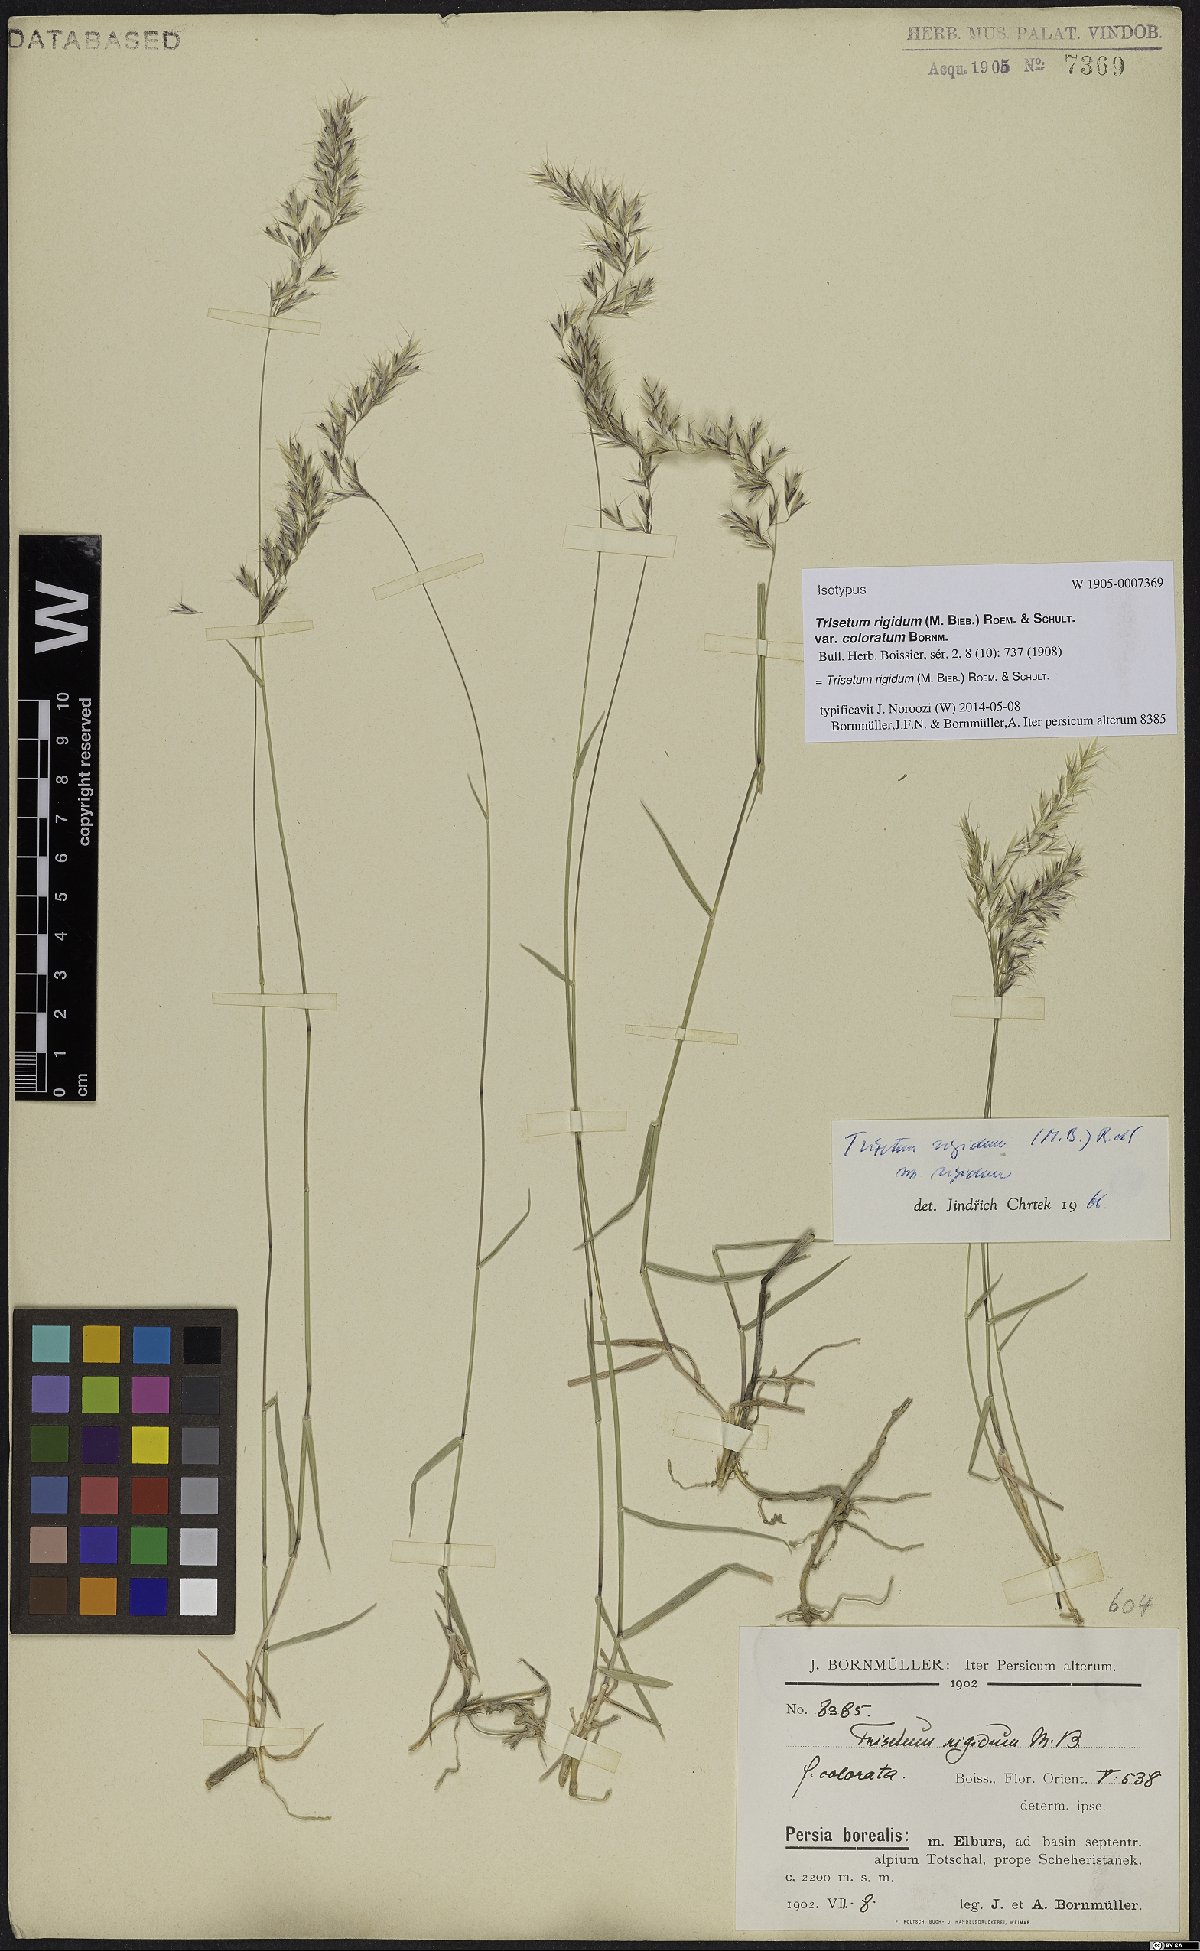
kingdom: Plantae
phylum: Tracheophyta
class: Liliopsida
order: Poales
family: Poaceae
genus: Trisetum
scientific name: Trisetum rigidum
